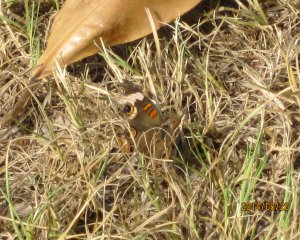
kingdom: Animalia
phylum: Arthropoda
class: Insecta
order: Lepidoptera
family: Nymphalidae
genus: Junonia
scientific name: Junonia coenia
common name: Common Buckeye
